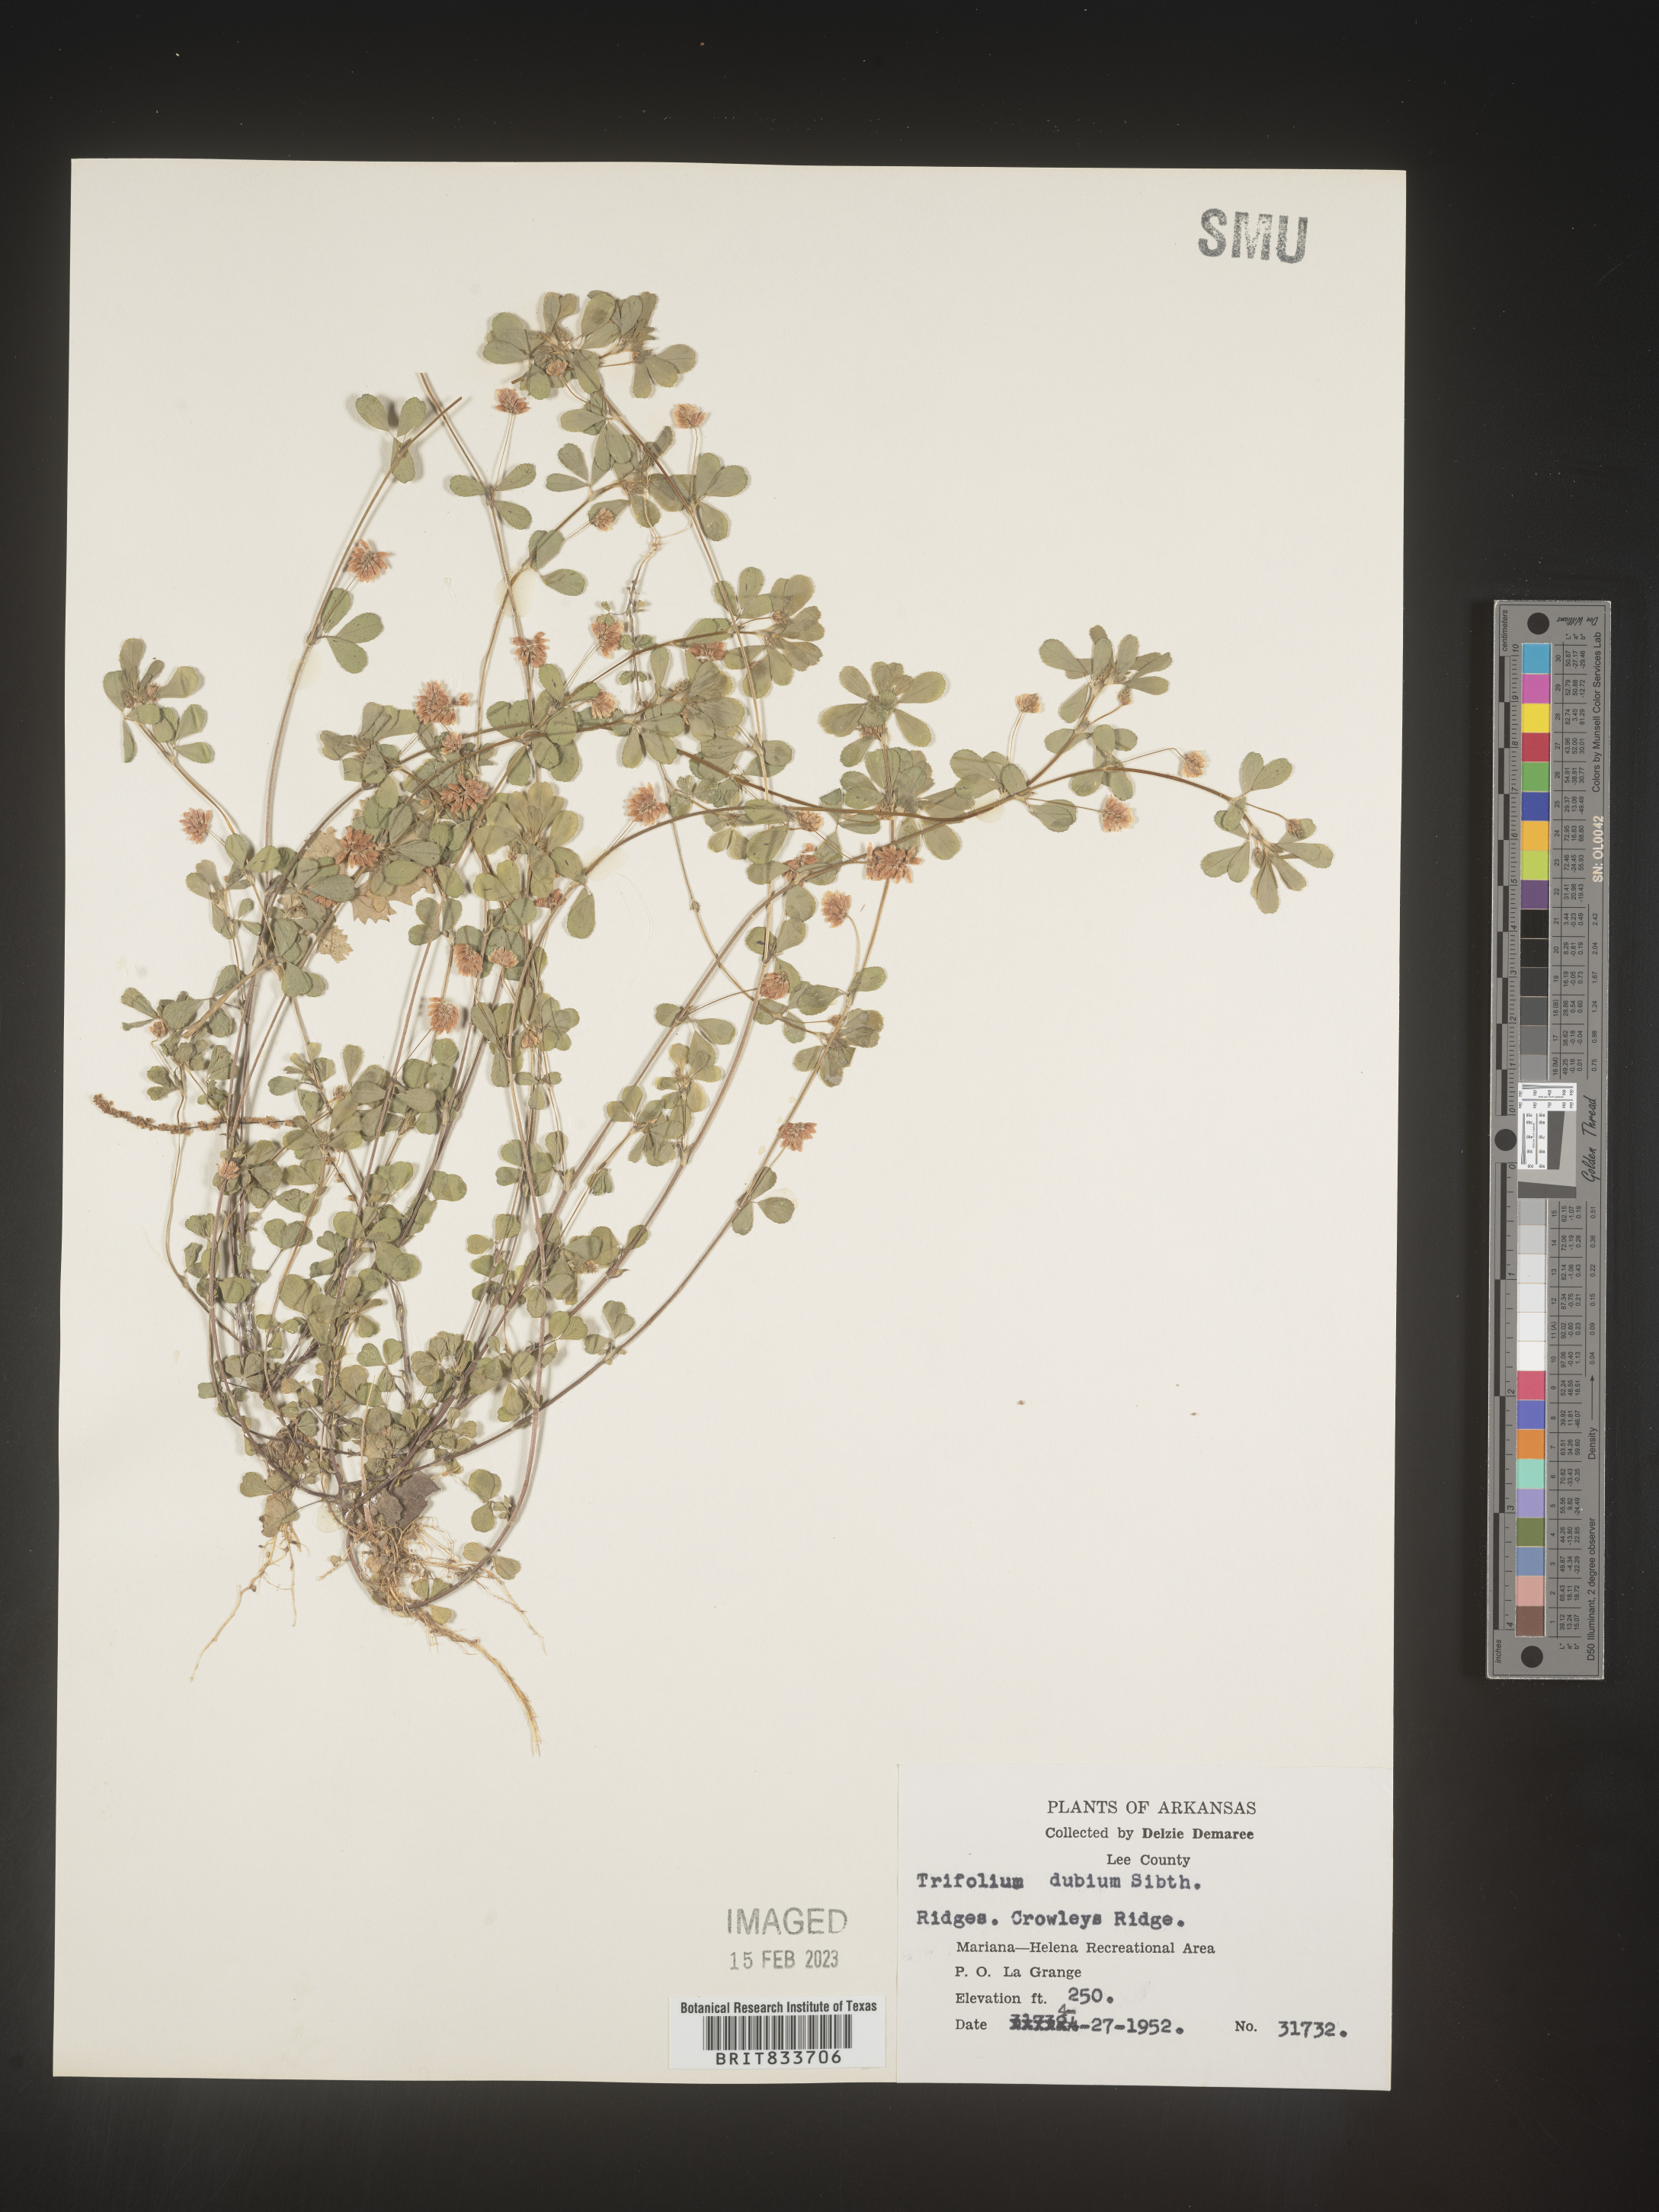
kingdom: Plantae
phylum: Tracheophyta
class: Magnoliopsida
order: Fabales
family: Fabaceae
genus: Trifolium
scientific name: Trifolium dubium
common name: Suckling clover
